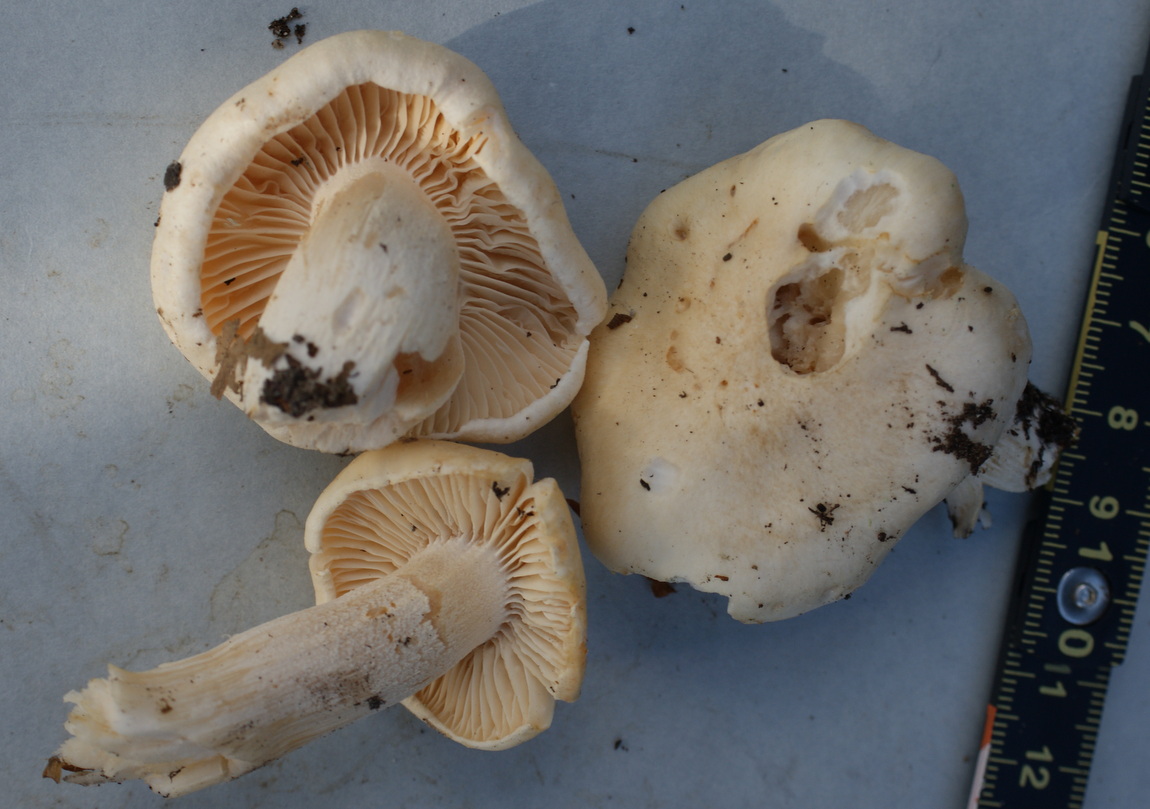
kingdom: Fungi
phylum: Basidiomycota
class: Agaricomycetes
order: Agaricales
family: Hygrophoraceae
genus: Hygrophorus
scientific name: Hygrophorus penarius
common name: spiselig sneglehat
